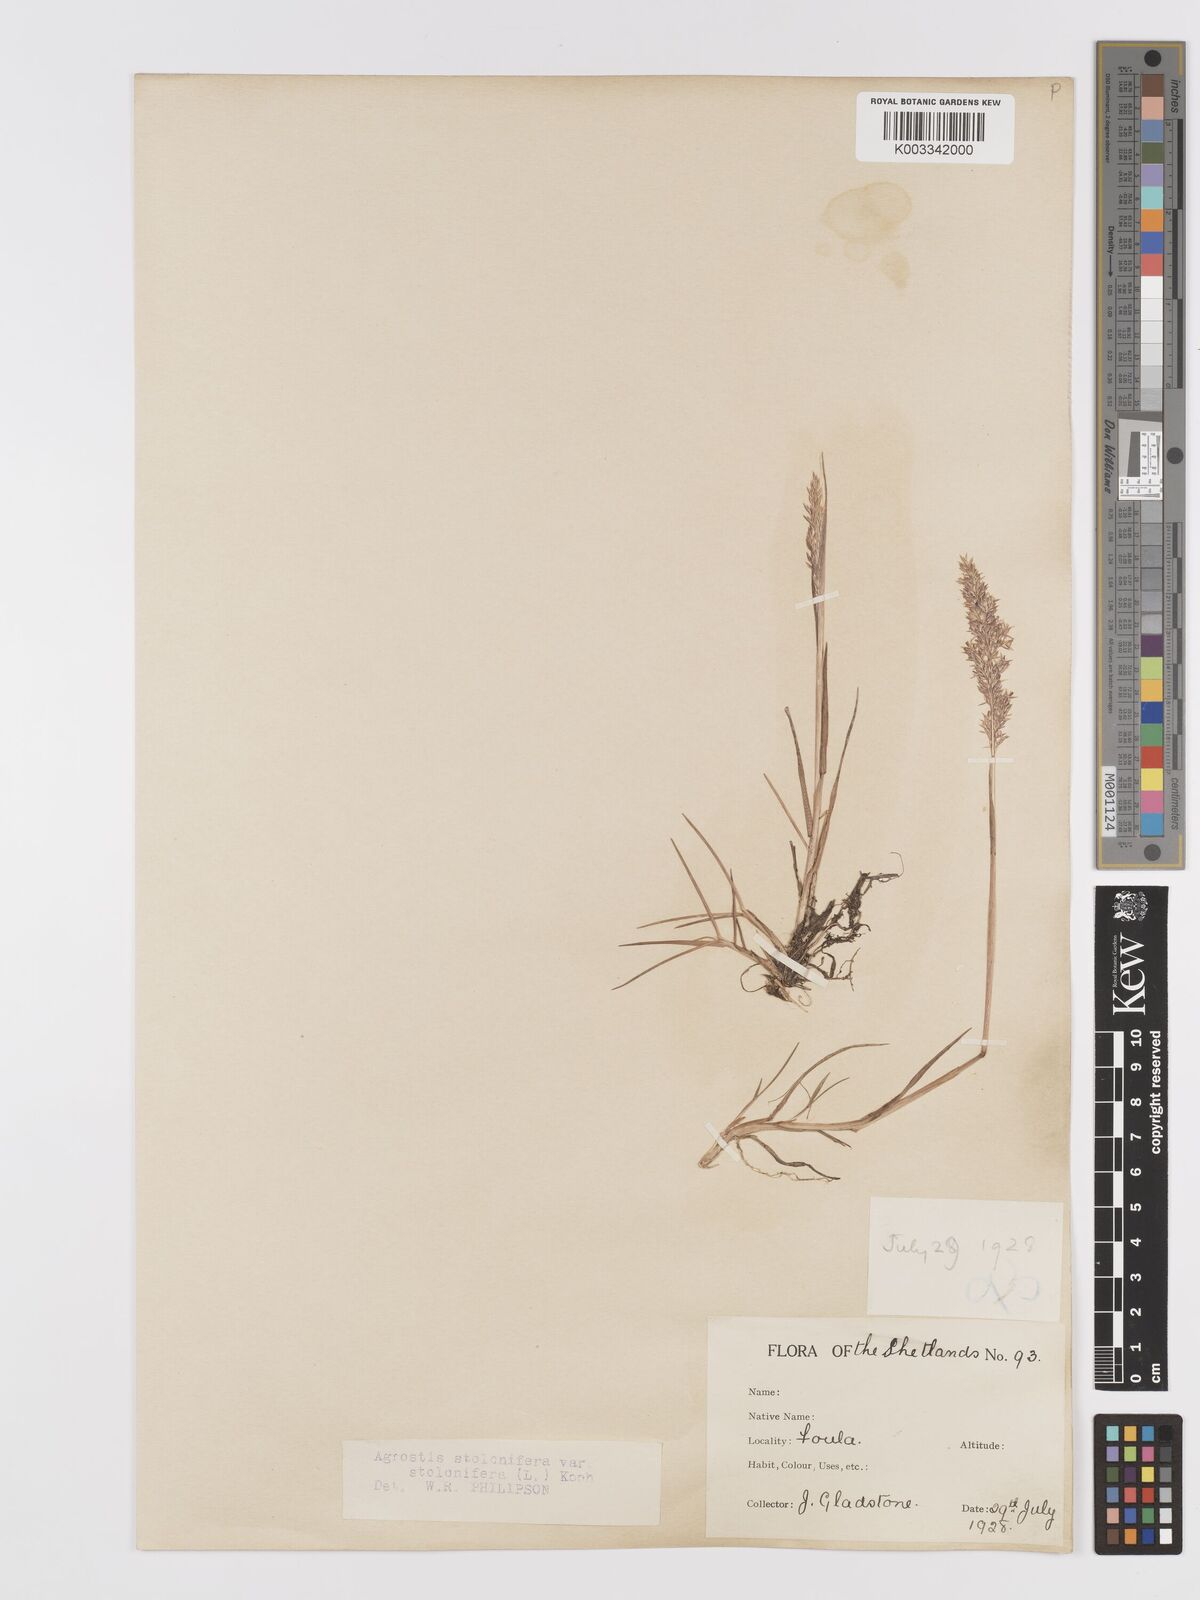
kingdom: Plantae
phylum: Tracheophyta
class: Liliopsida
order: Poales
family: Poaceae
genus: Agrostis
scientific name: Agrostis stolonifera
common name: Creeping bentgrass
